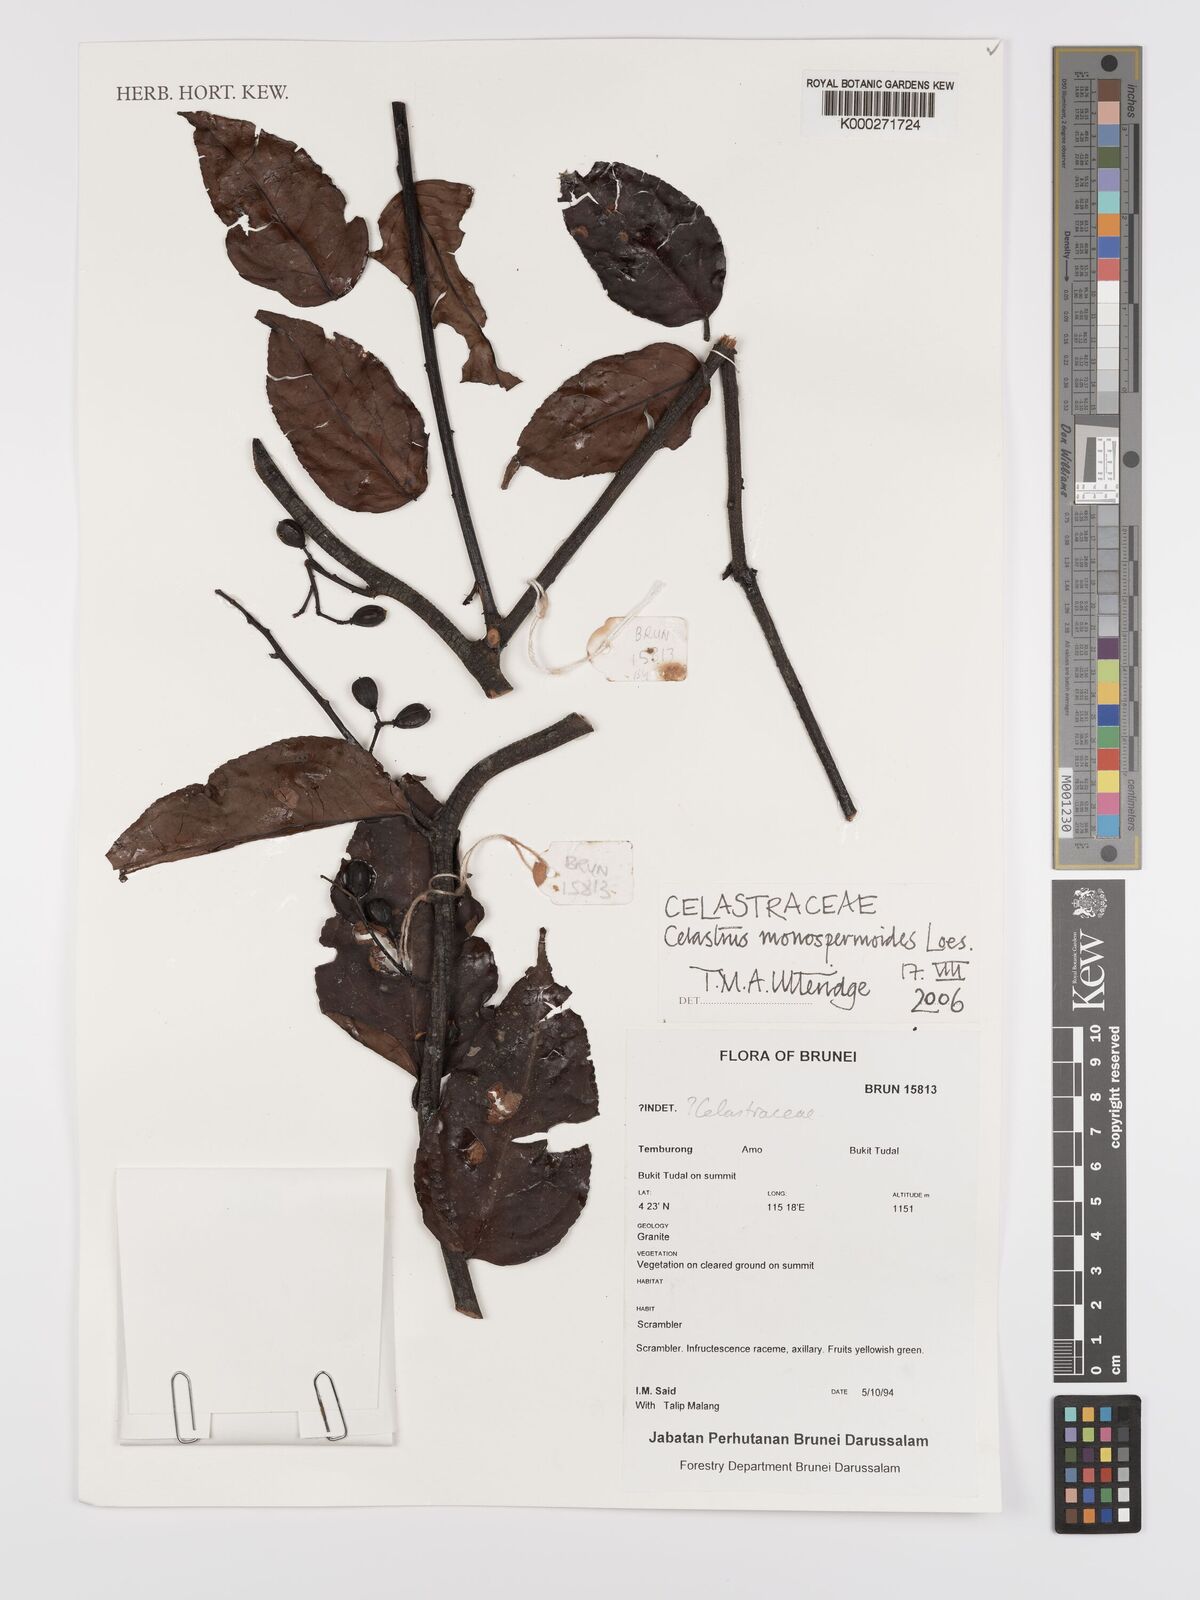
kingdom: Plantae
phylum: Tracheophyta
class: Magnoliopsida
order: Celastrales
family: Celastraceae
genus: Celastrus
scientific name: Celastrus monospermoides
